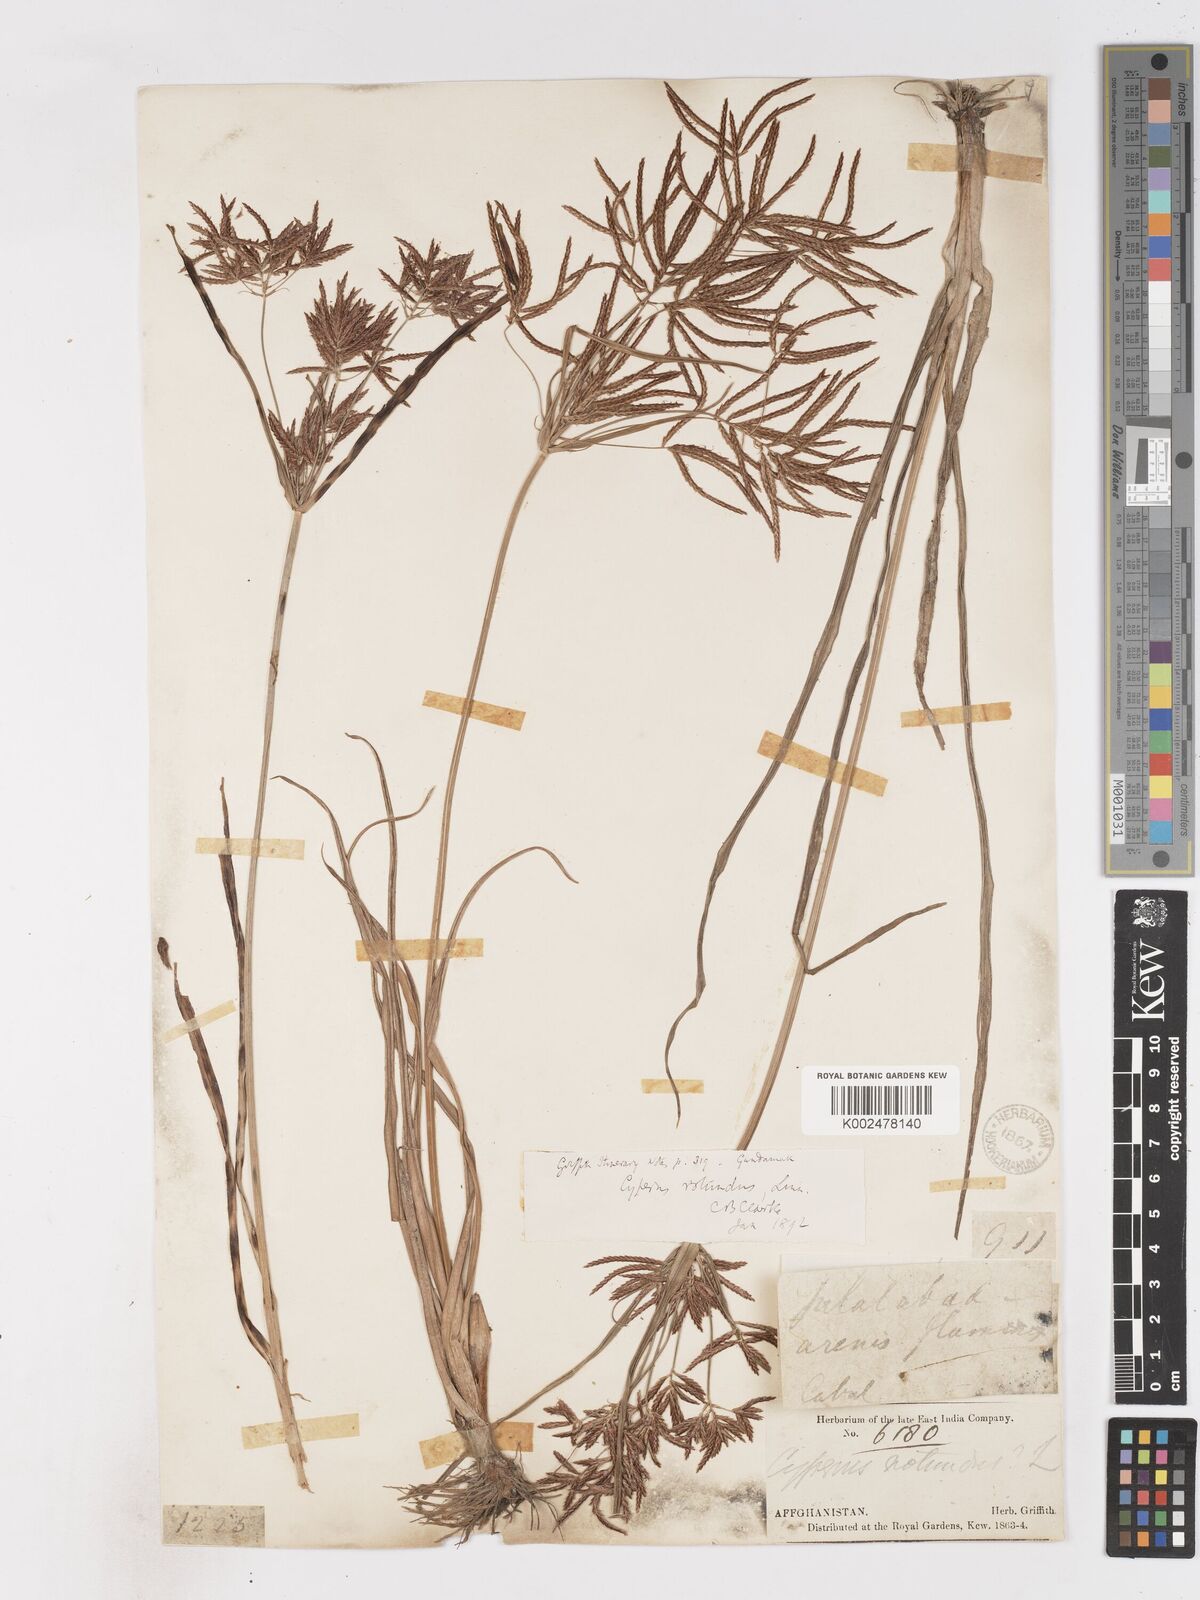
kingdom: Plantae
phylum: Tracheophyta
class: Liliopsida
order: Poales
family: Cyperaceae
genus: Cyperus
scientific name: Cyperus rotundus
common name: Nutgrass
